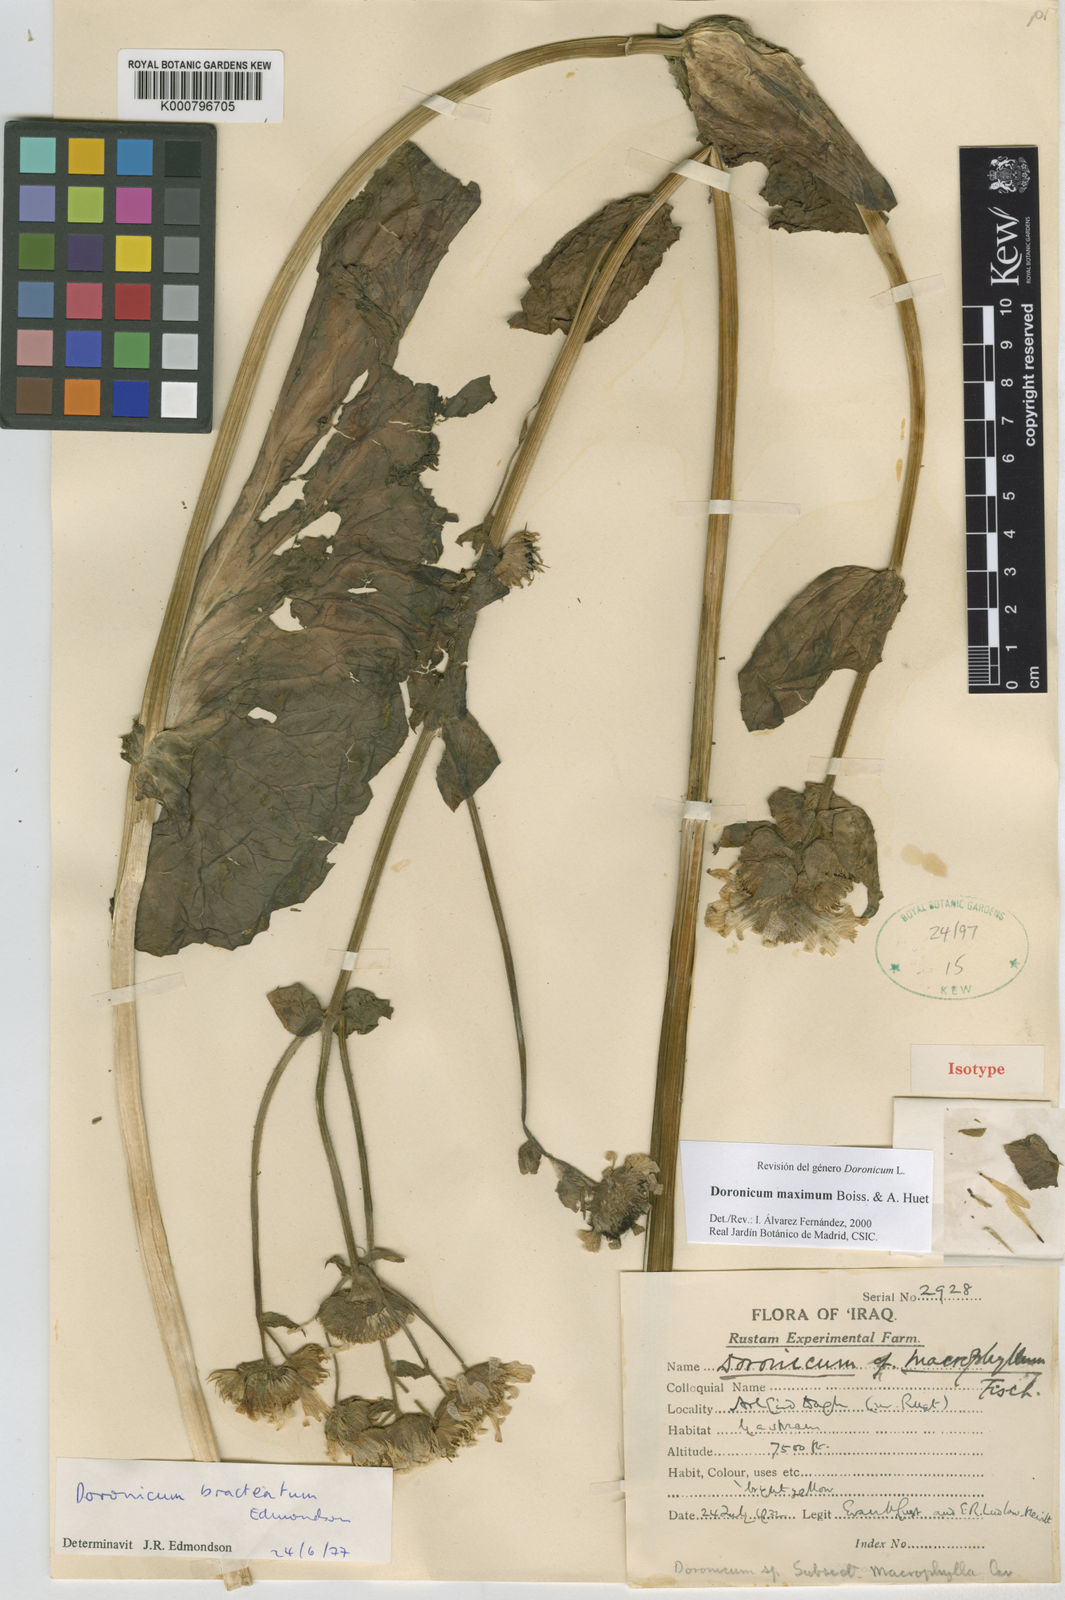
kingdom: Plantae
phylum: Tracheophyta
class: Magnoliopsida
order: Asterales
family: Asteraceae
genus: Doronicum
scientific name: Doronicum maximum
